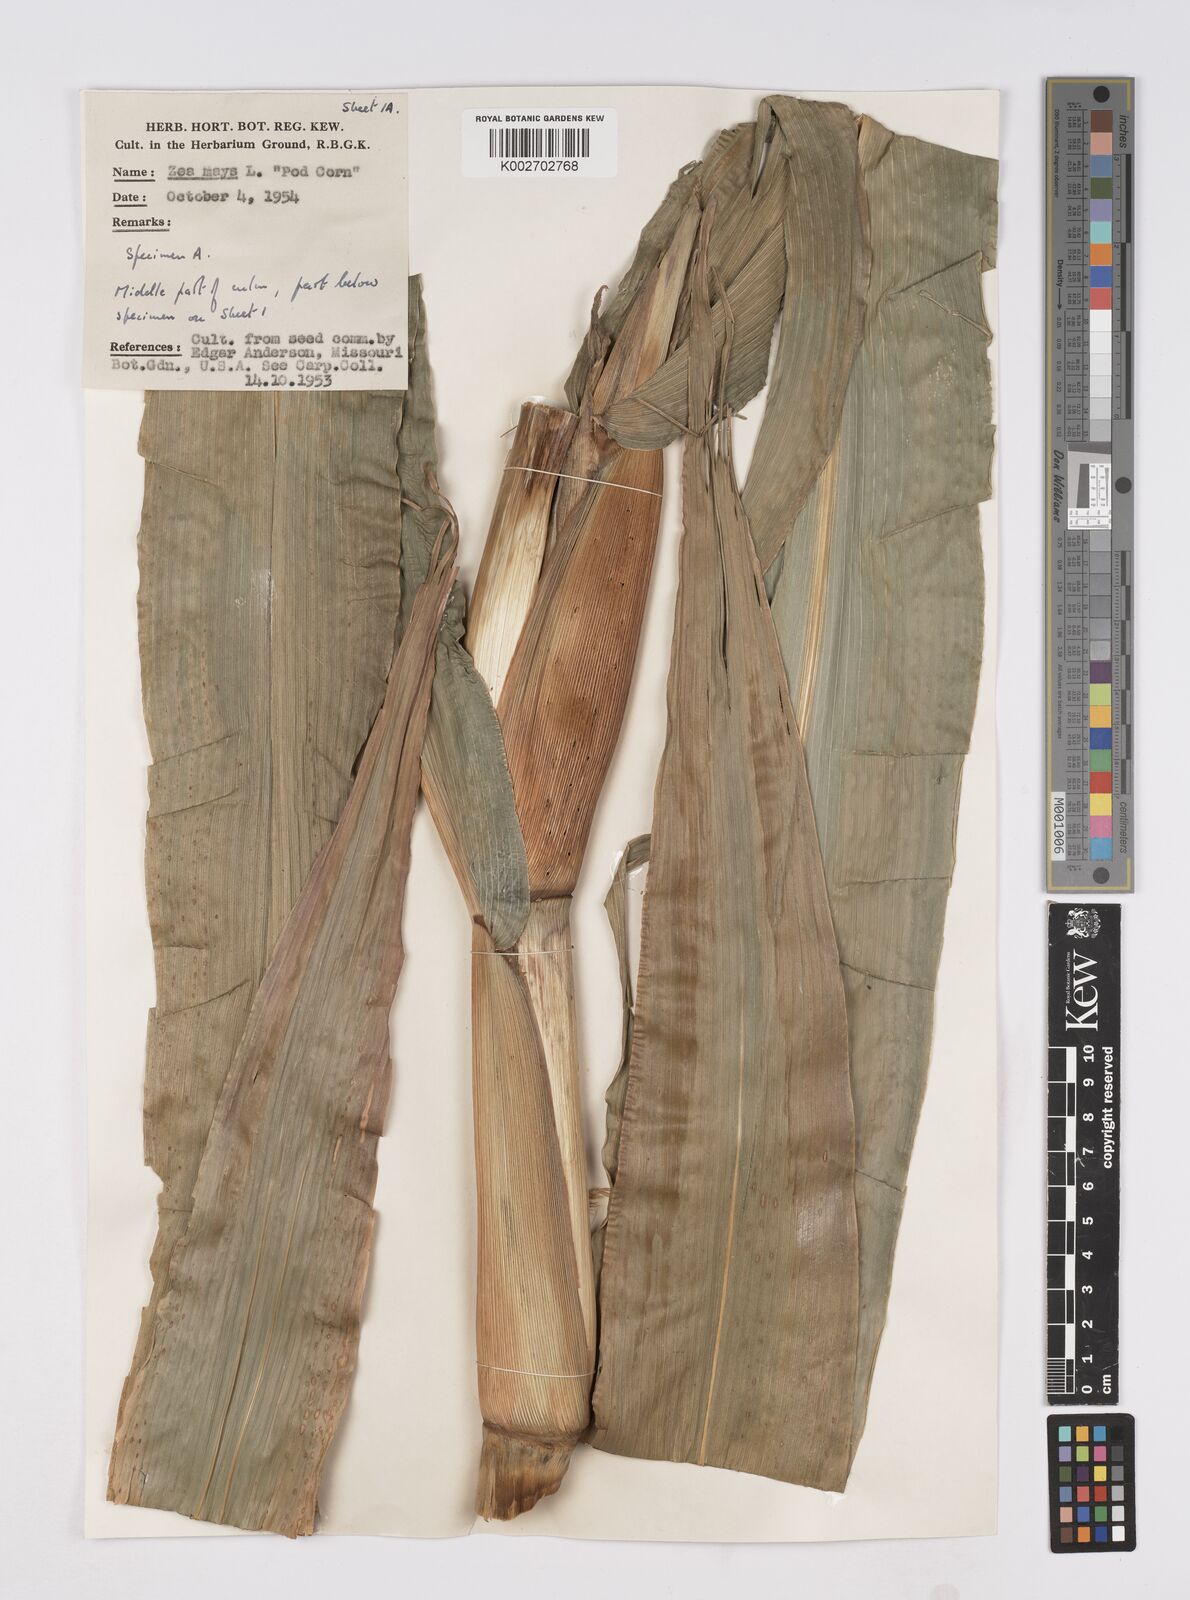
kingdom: Plantae
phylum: Tracheophyta
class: Liliopsida
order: Poales
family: Poaceae
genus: Zea
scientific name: Zea mays
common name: Maize
